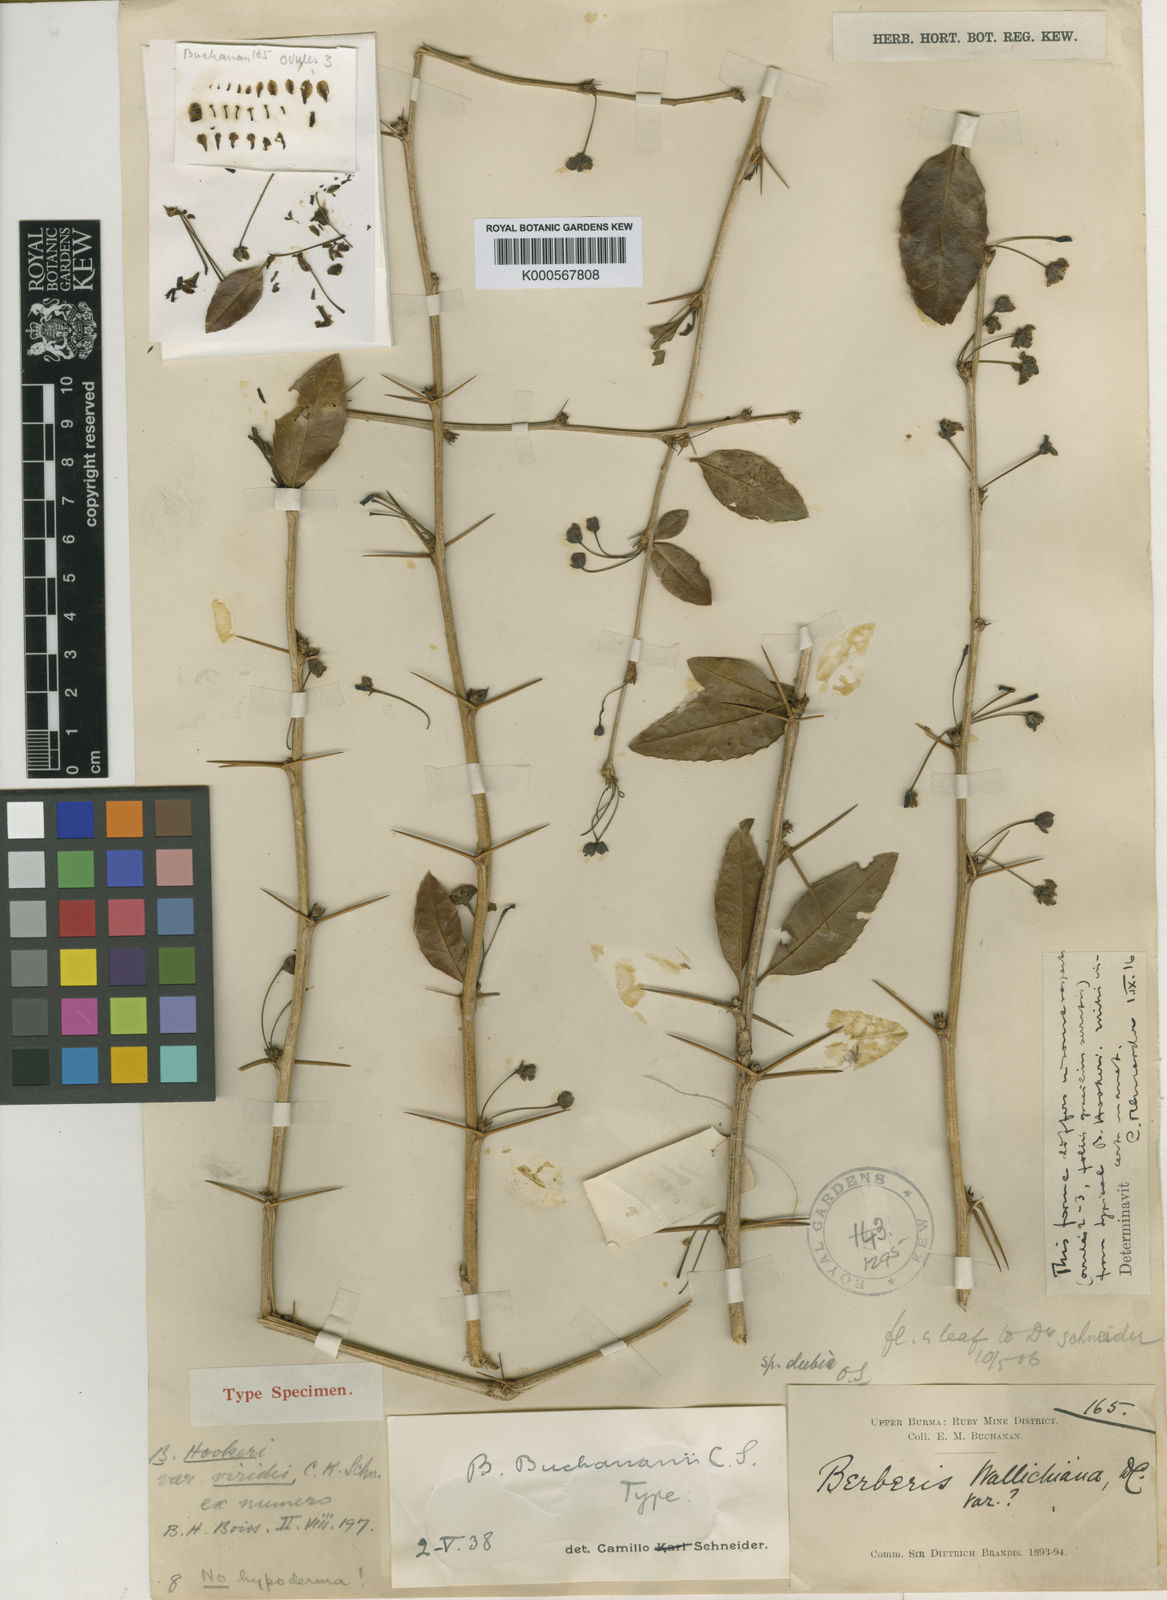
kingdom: Plantae
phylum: Tracheophyta
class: Magnoliopsida
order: Ranunculales
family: Berberidaceae
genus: Berberis
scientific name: Berberis buchananii
